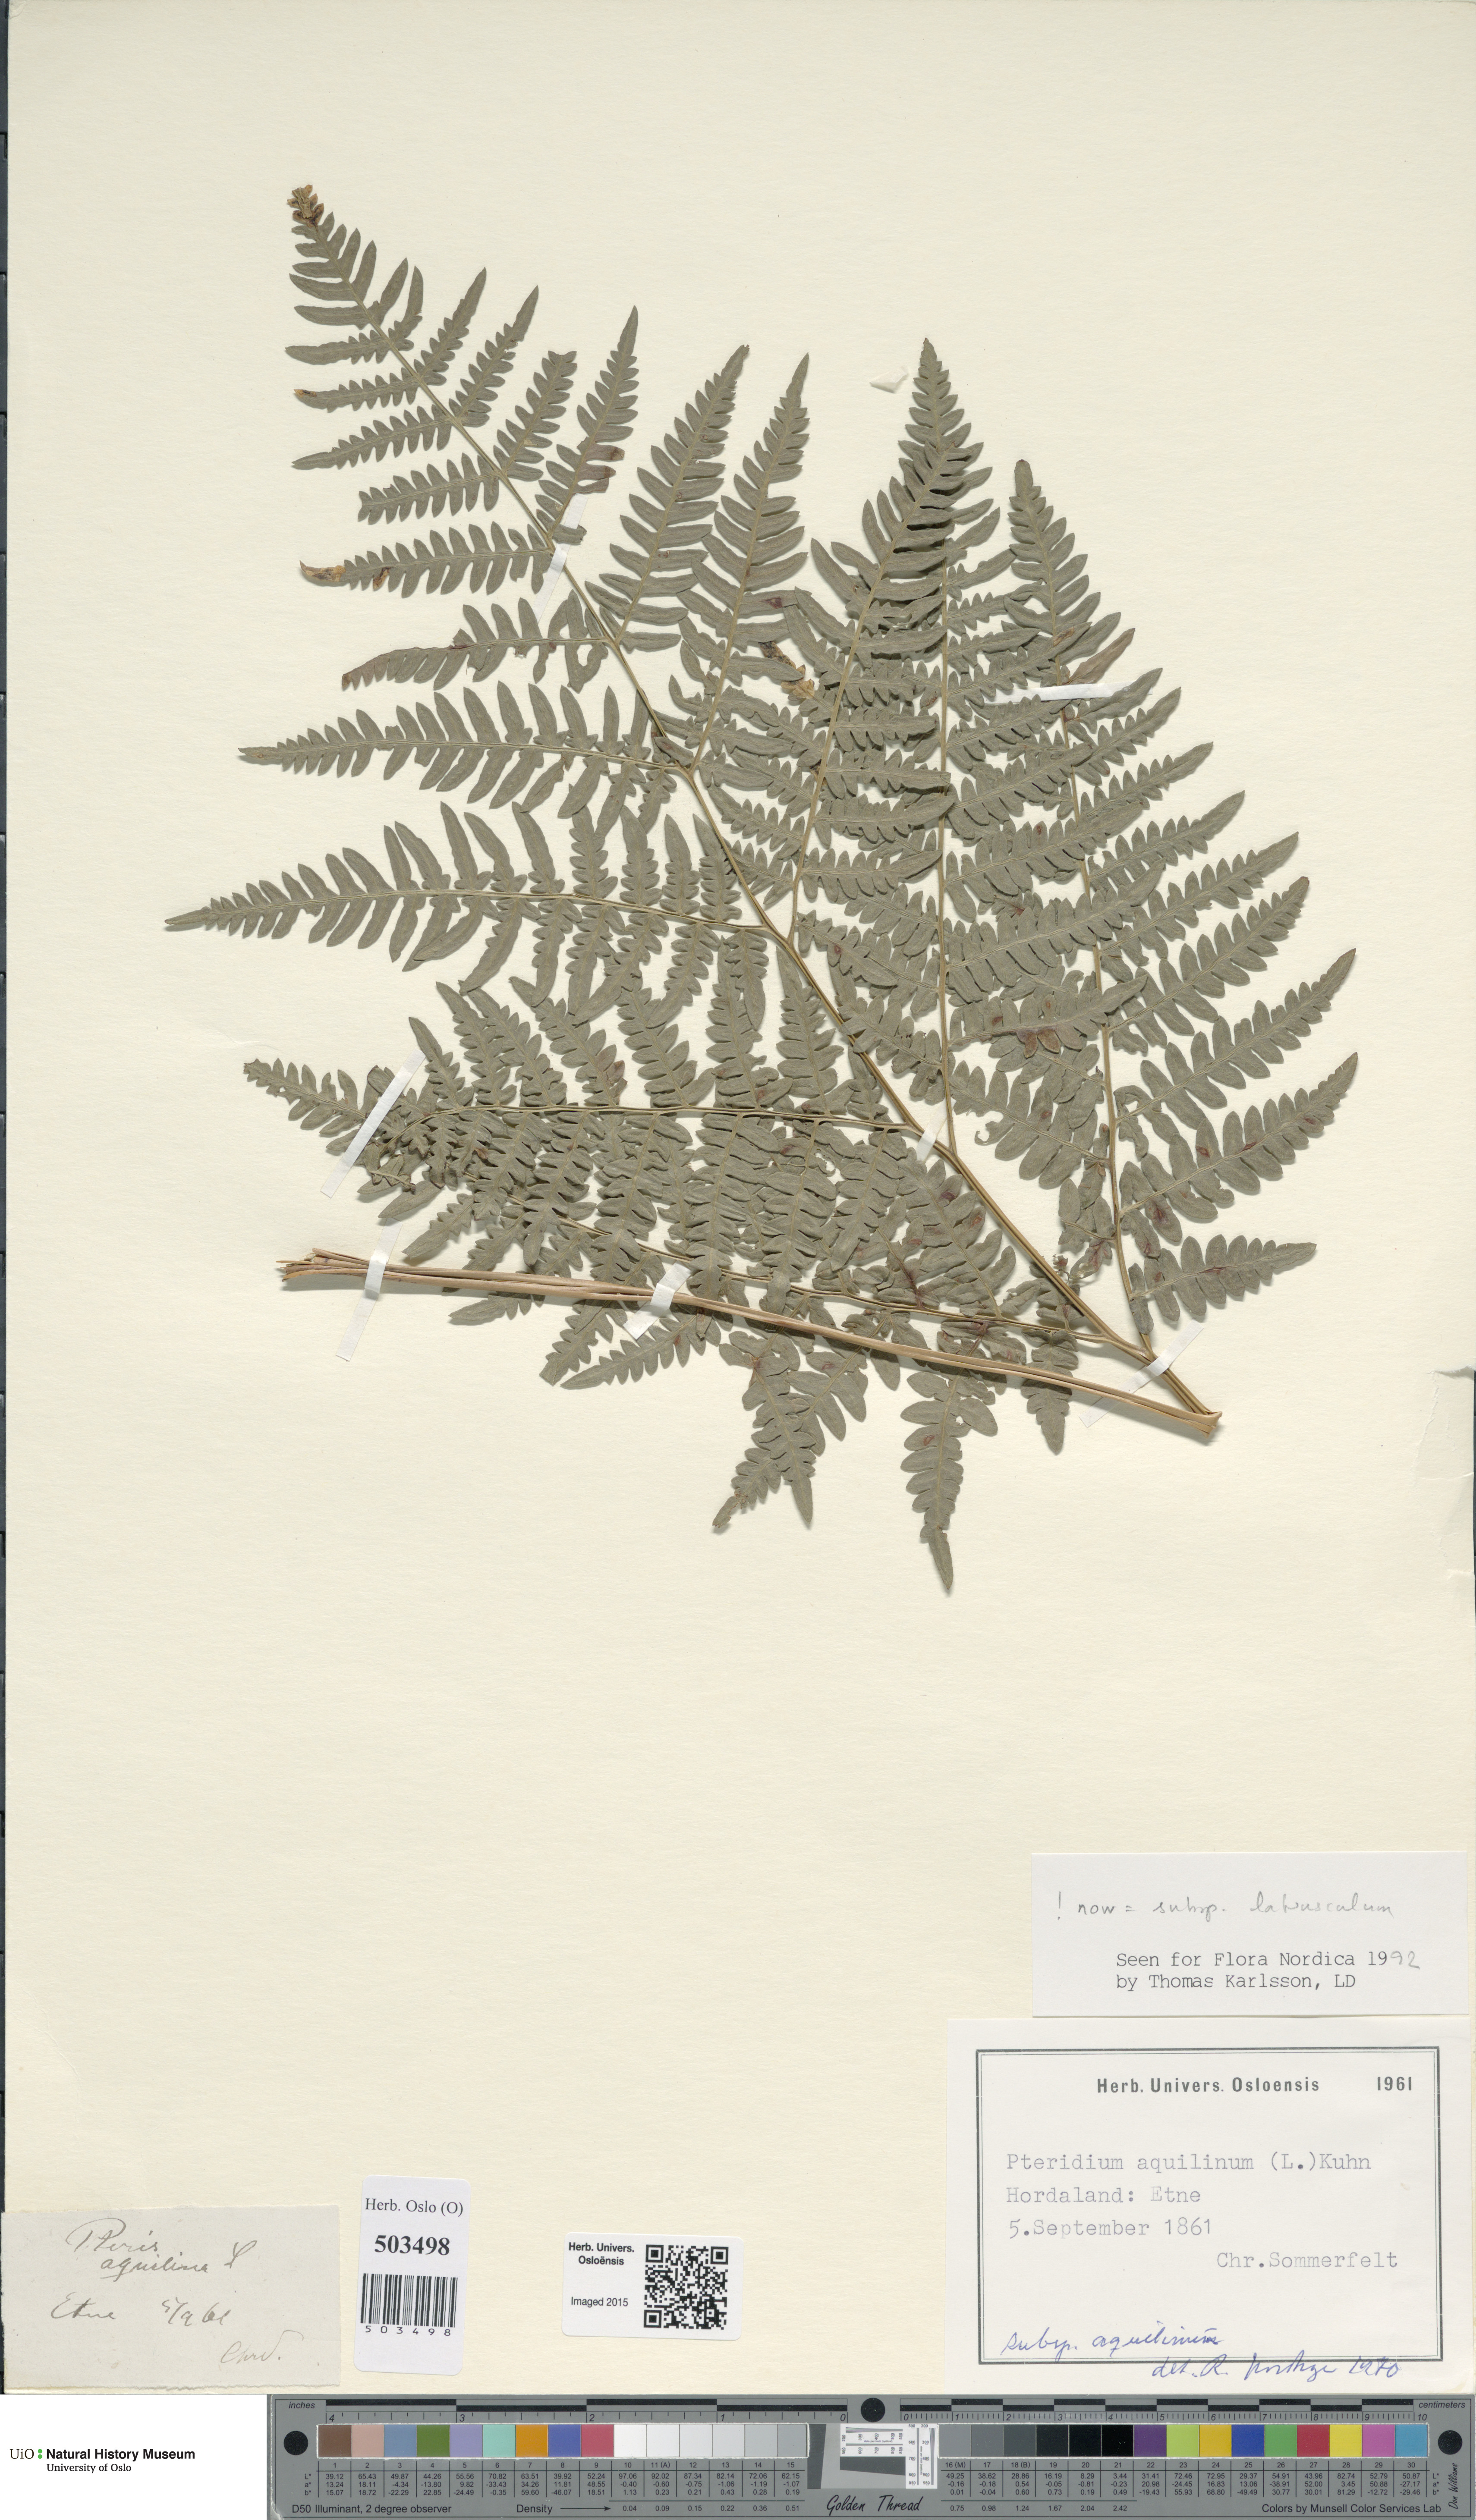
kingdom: Plantae
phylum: Tracheophyta
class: Polypodiopsida
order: Polypodiales
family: Dennstaedtiaceae
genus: Pteridium
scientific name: Pteridium aquilinum
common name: Bracken
